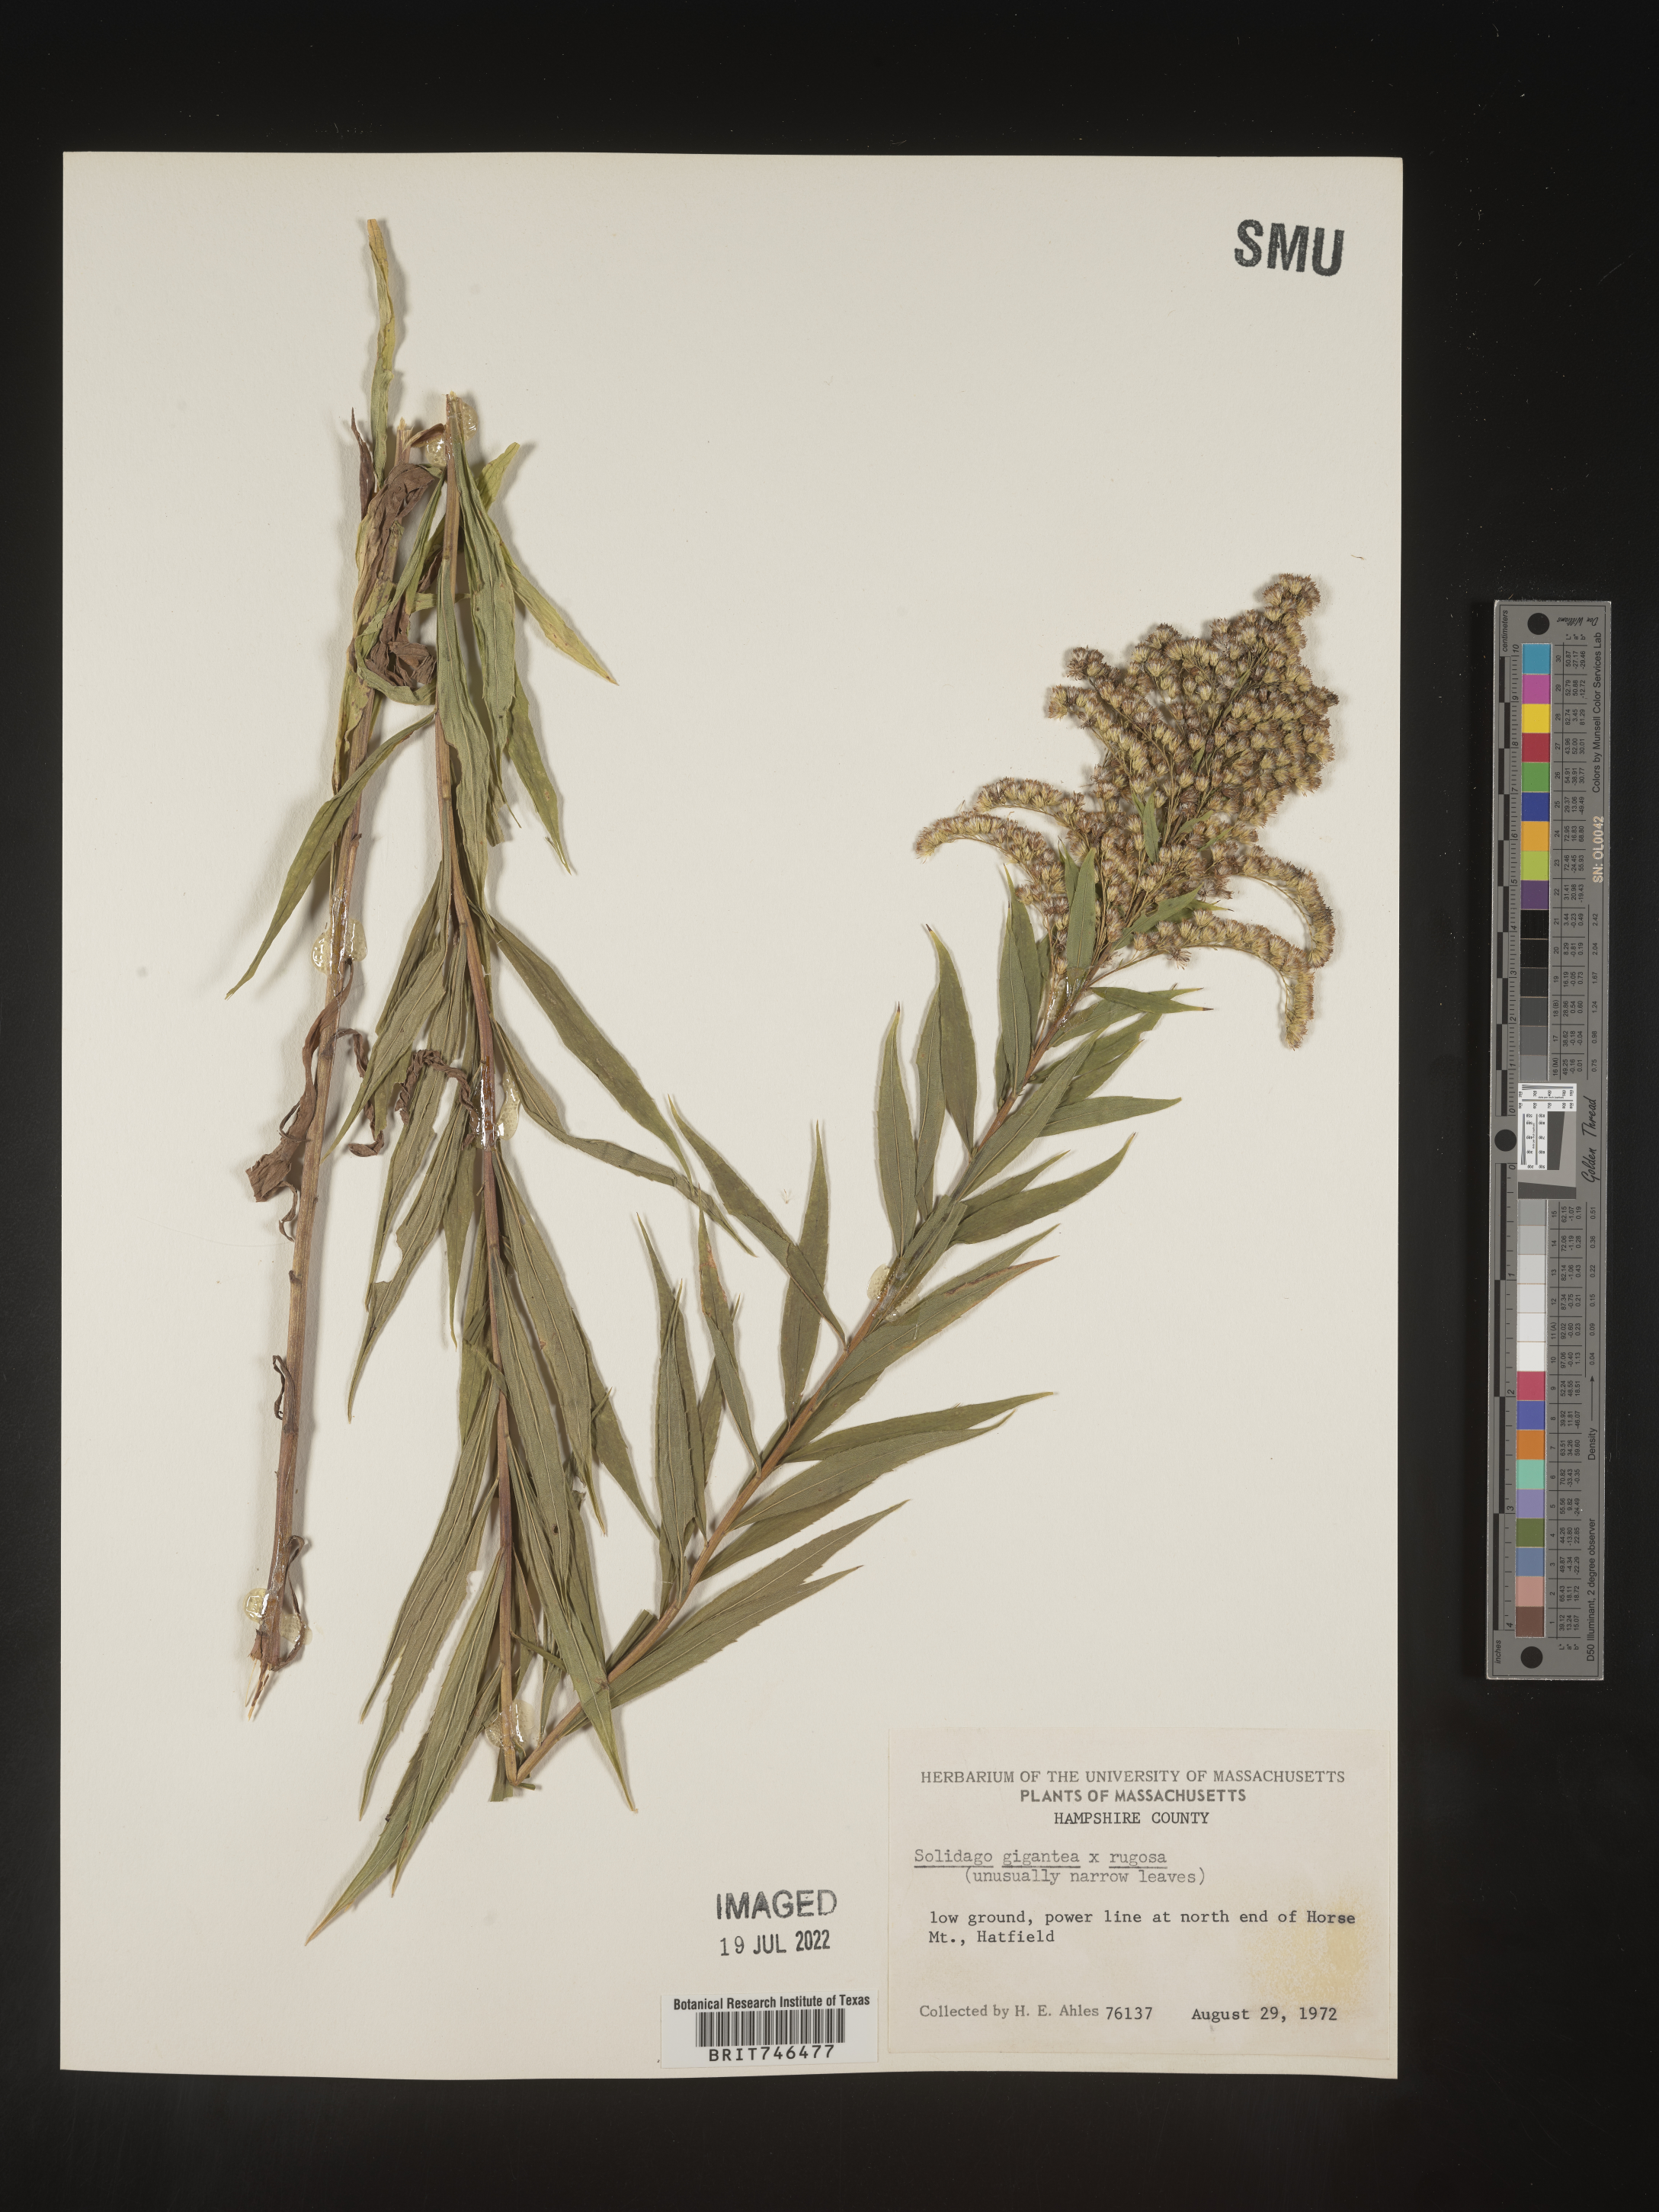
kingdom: Plantae
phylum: Tracheophyta
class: Magnoliopsida
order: Asterales
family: Asteraceae
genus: Solidago
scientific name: Solidago gigantea
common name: Giant goldenrod
